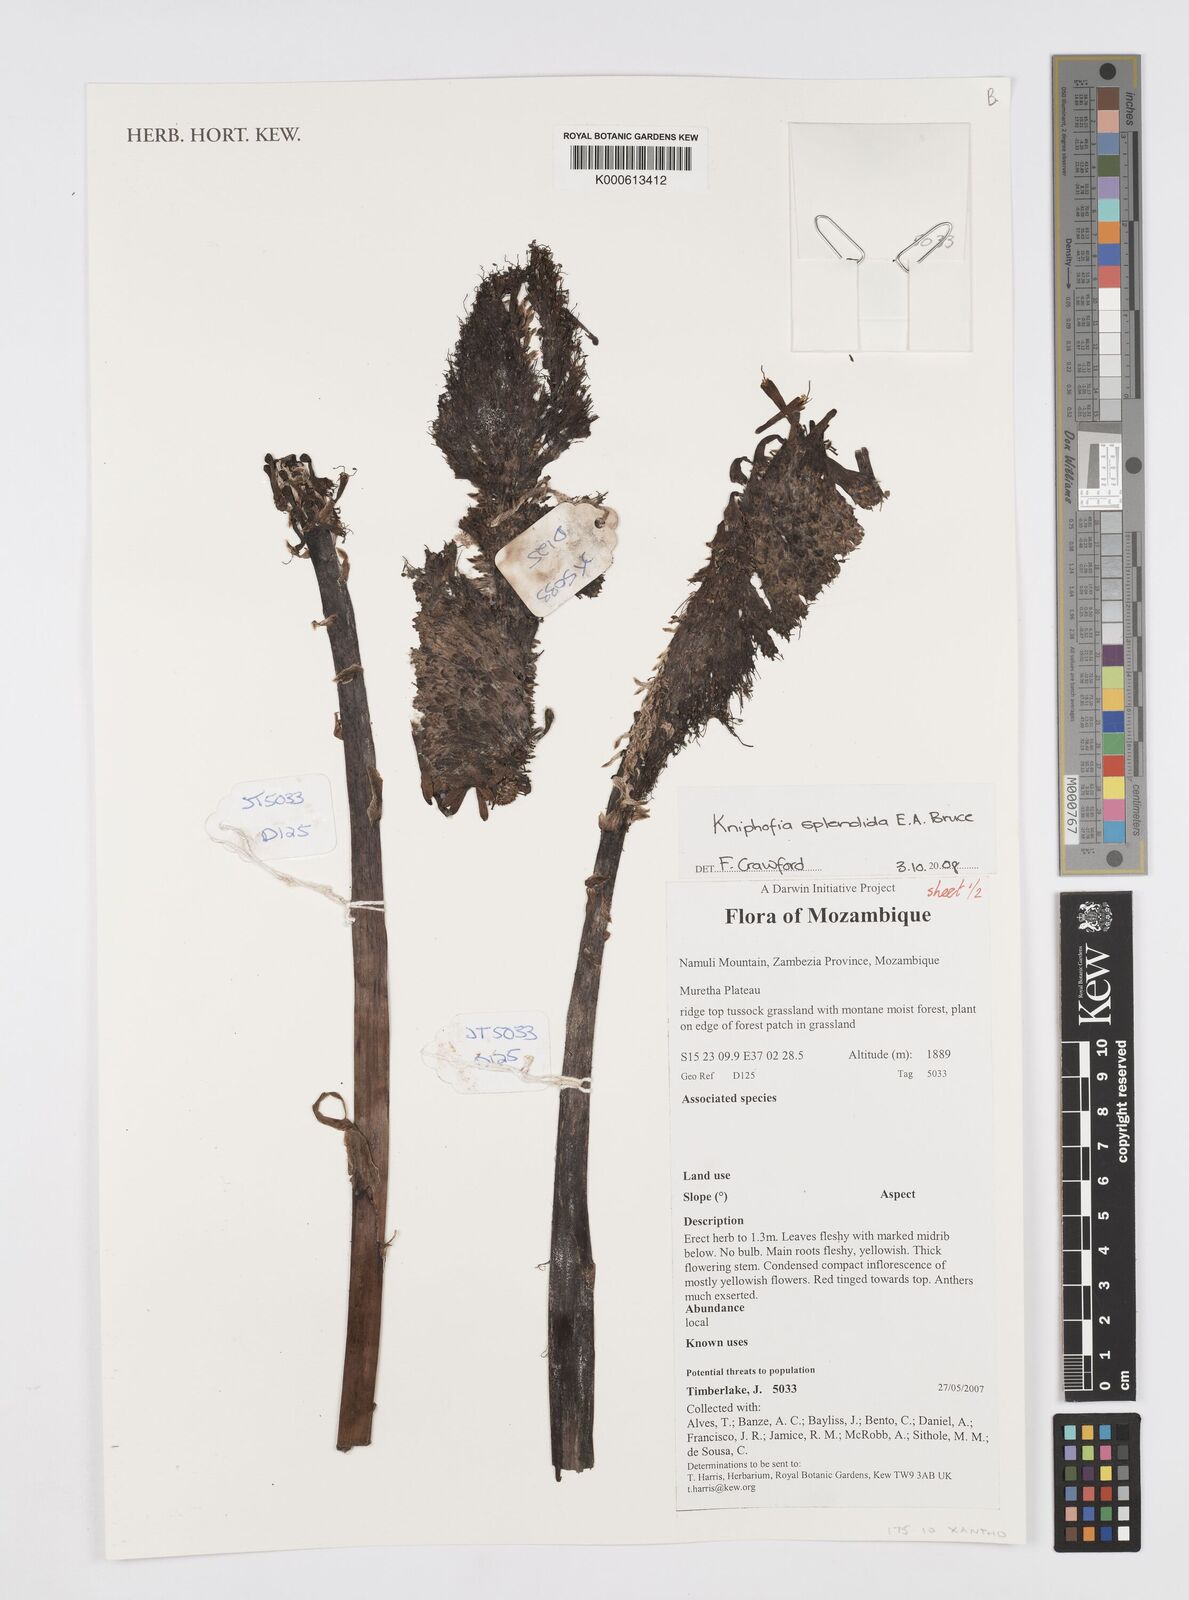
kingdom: Plantae
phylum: Tracheophyta
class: Liliopsida
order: Asparagales
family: Asphodelaceae
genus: Kniphofia
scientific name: Kniphofia splendida
